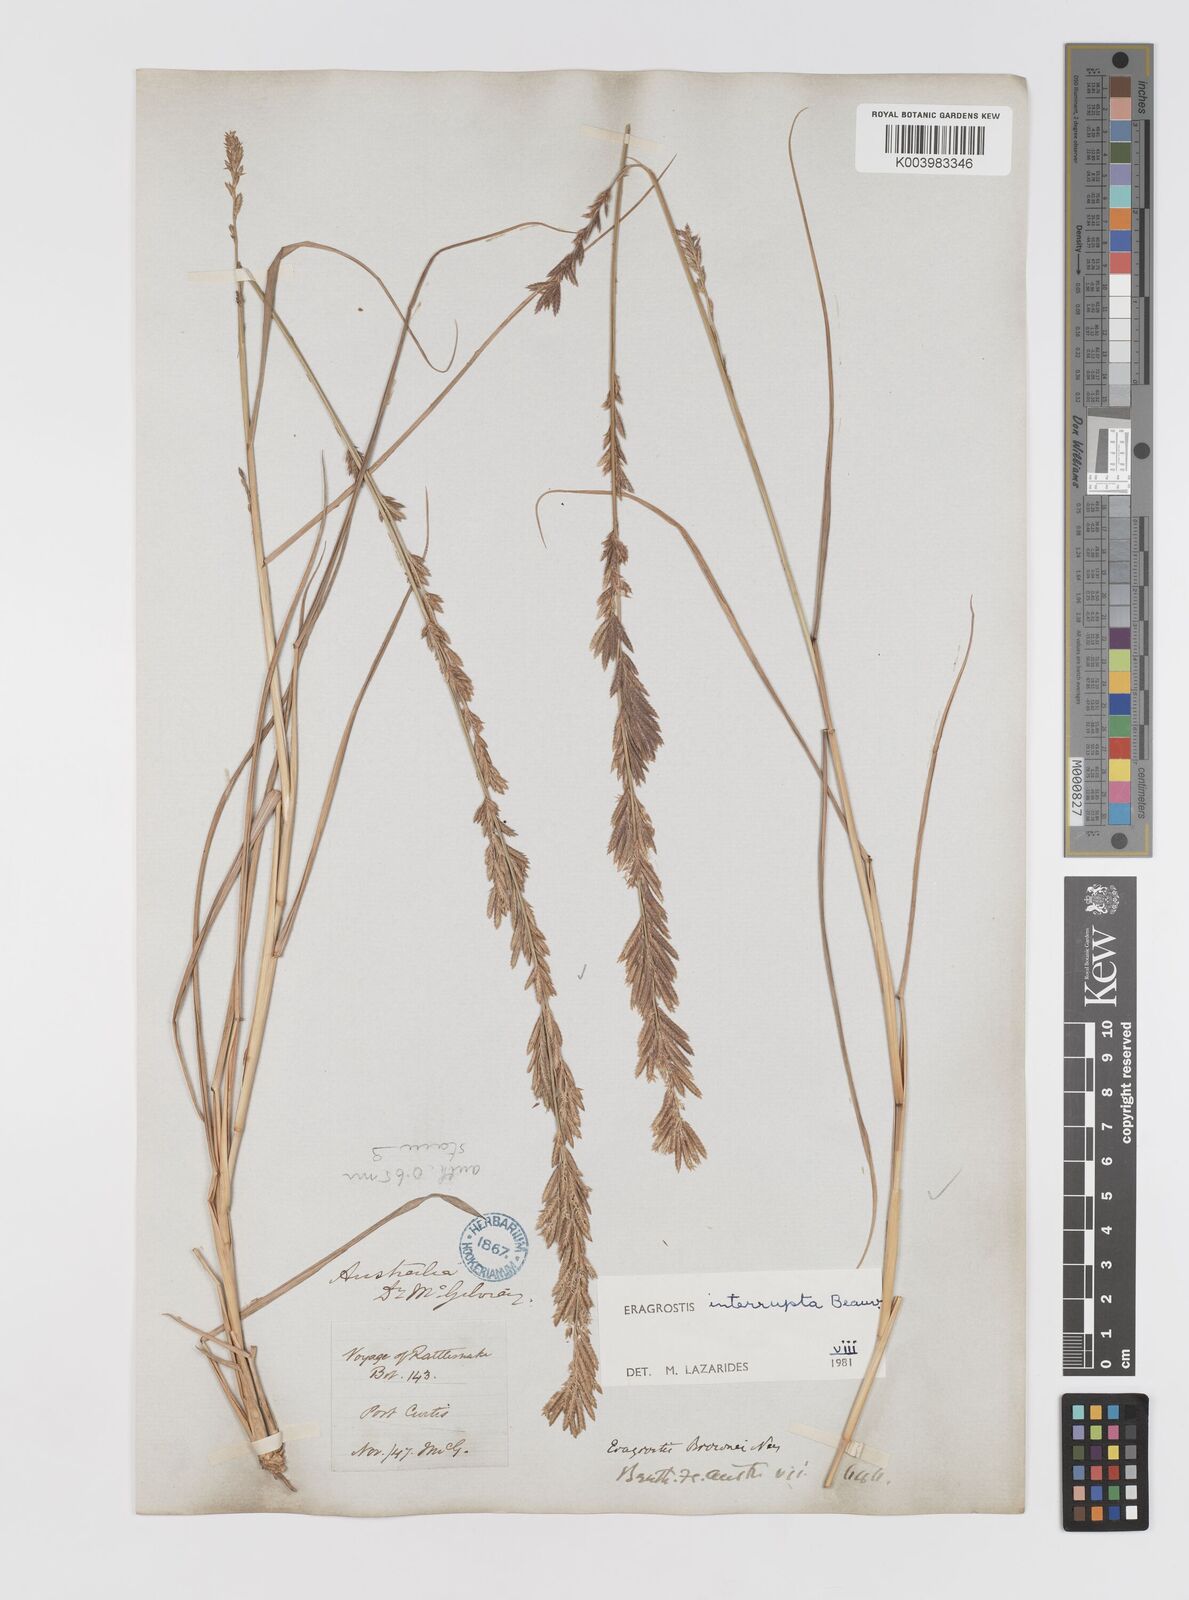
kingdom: Plantae
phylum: Tracheophyta
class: Liliopsida
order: Poales
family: Poaceae
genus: Eragrostis
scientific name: Eragrostis interrupta
